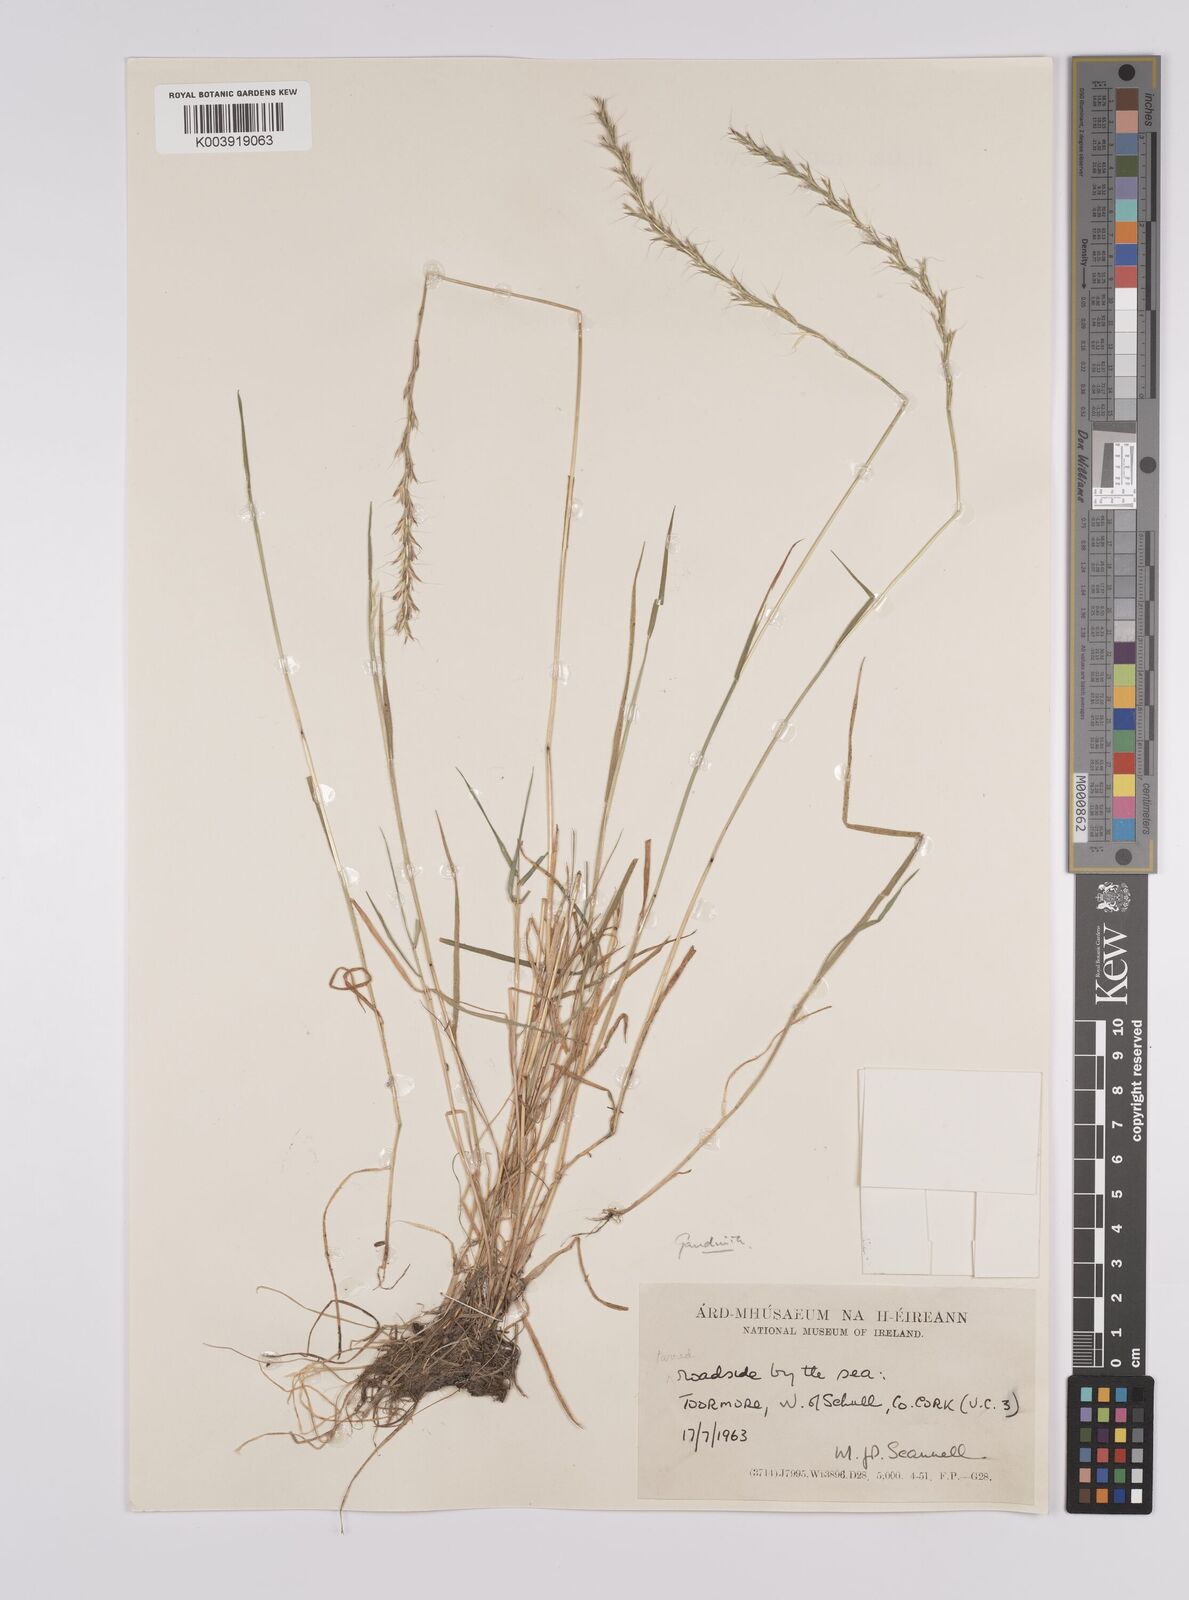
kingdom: Plantae
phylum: Tracheophyta
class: Liliopsida
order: Poales
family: Poaceae
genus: Gaudinia
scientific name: Gaudinia fragilis
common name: French oat-grass
